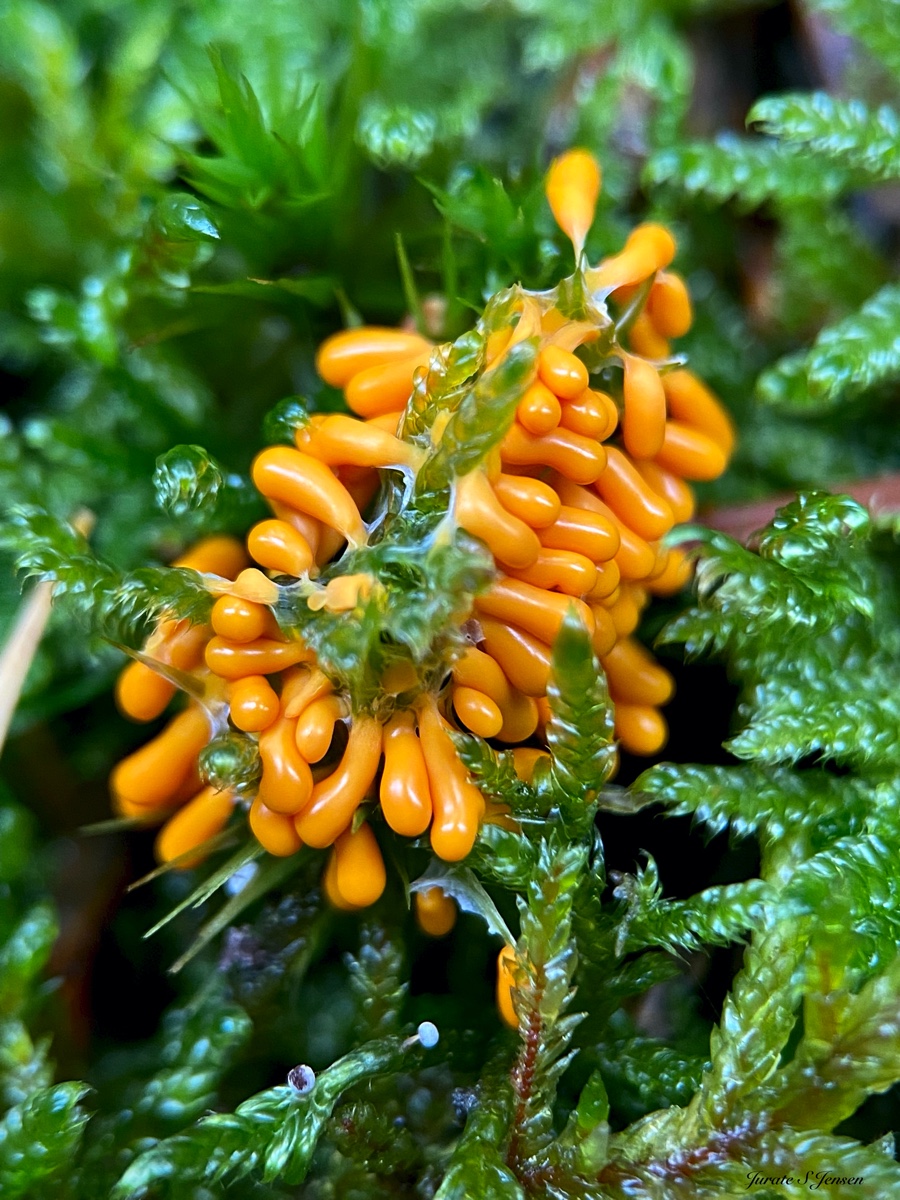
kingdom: Protozoa
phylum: Mycetozoa
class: Myxomycetes
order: Physarales
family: Physaraceae
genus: Leocarpus
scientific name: Leocarpus fragilis
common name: poleret glatfrø
